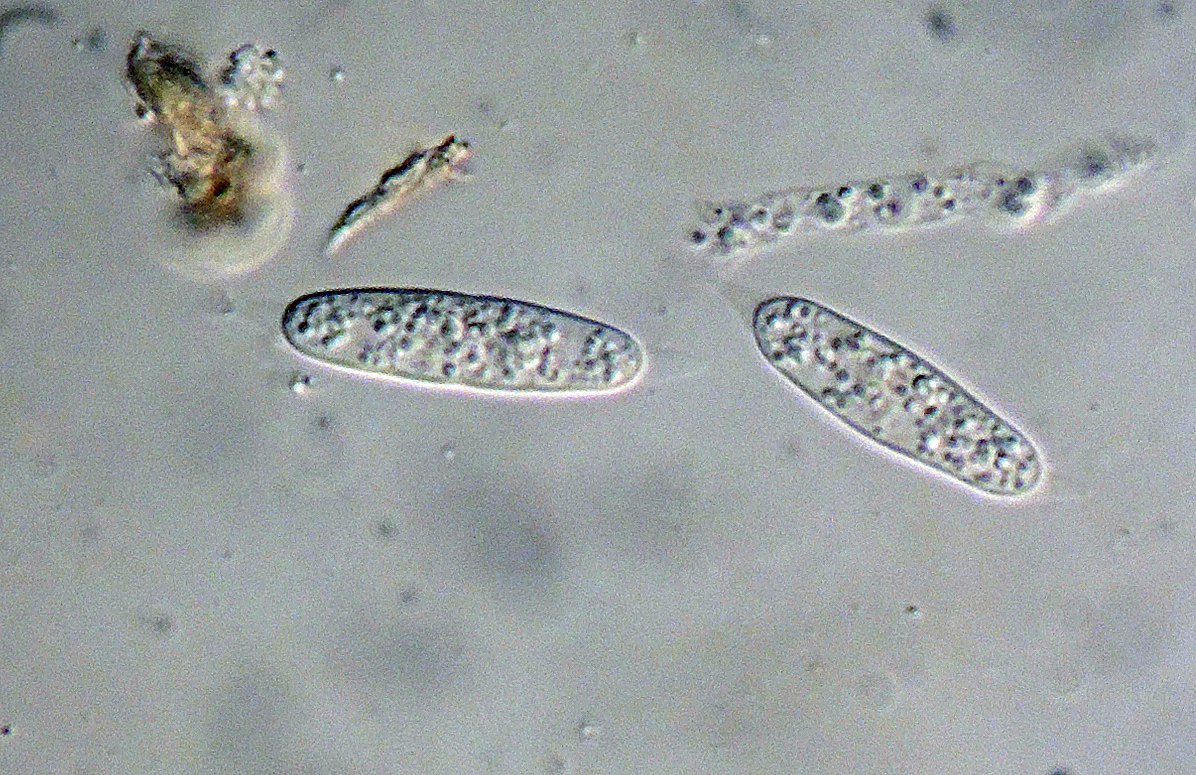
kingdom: Fungi
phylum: Ascomycota
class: Sordariomycetes
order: Diaporthales
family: Melanconidaceae
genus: Prosthecium
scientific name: Prosthecium platanoidis
